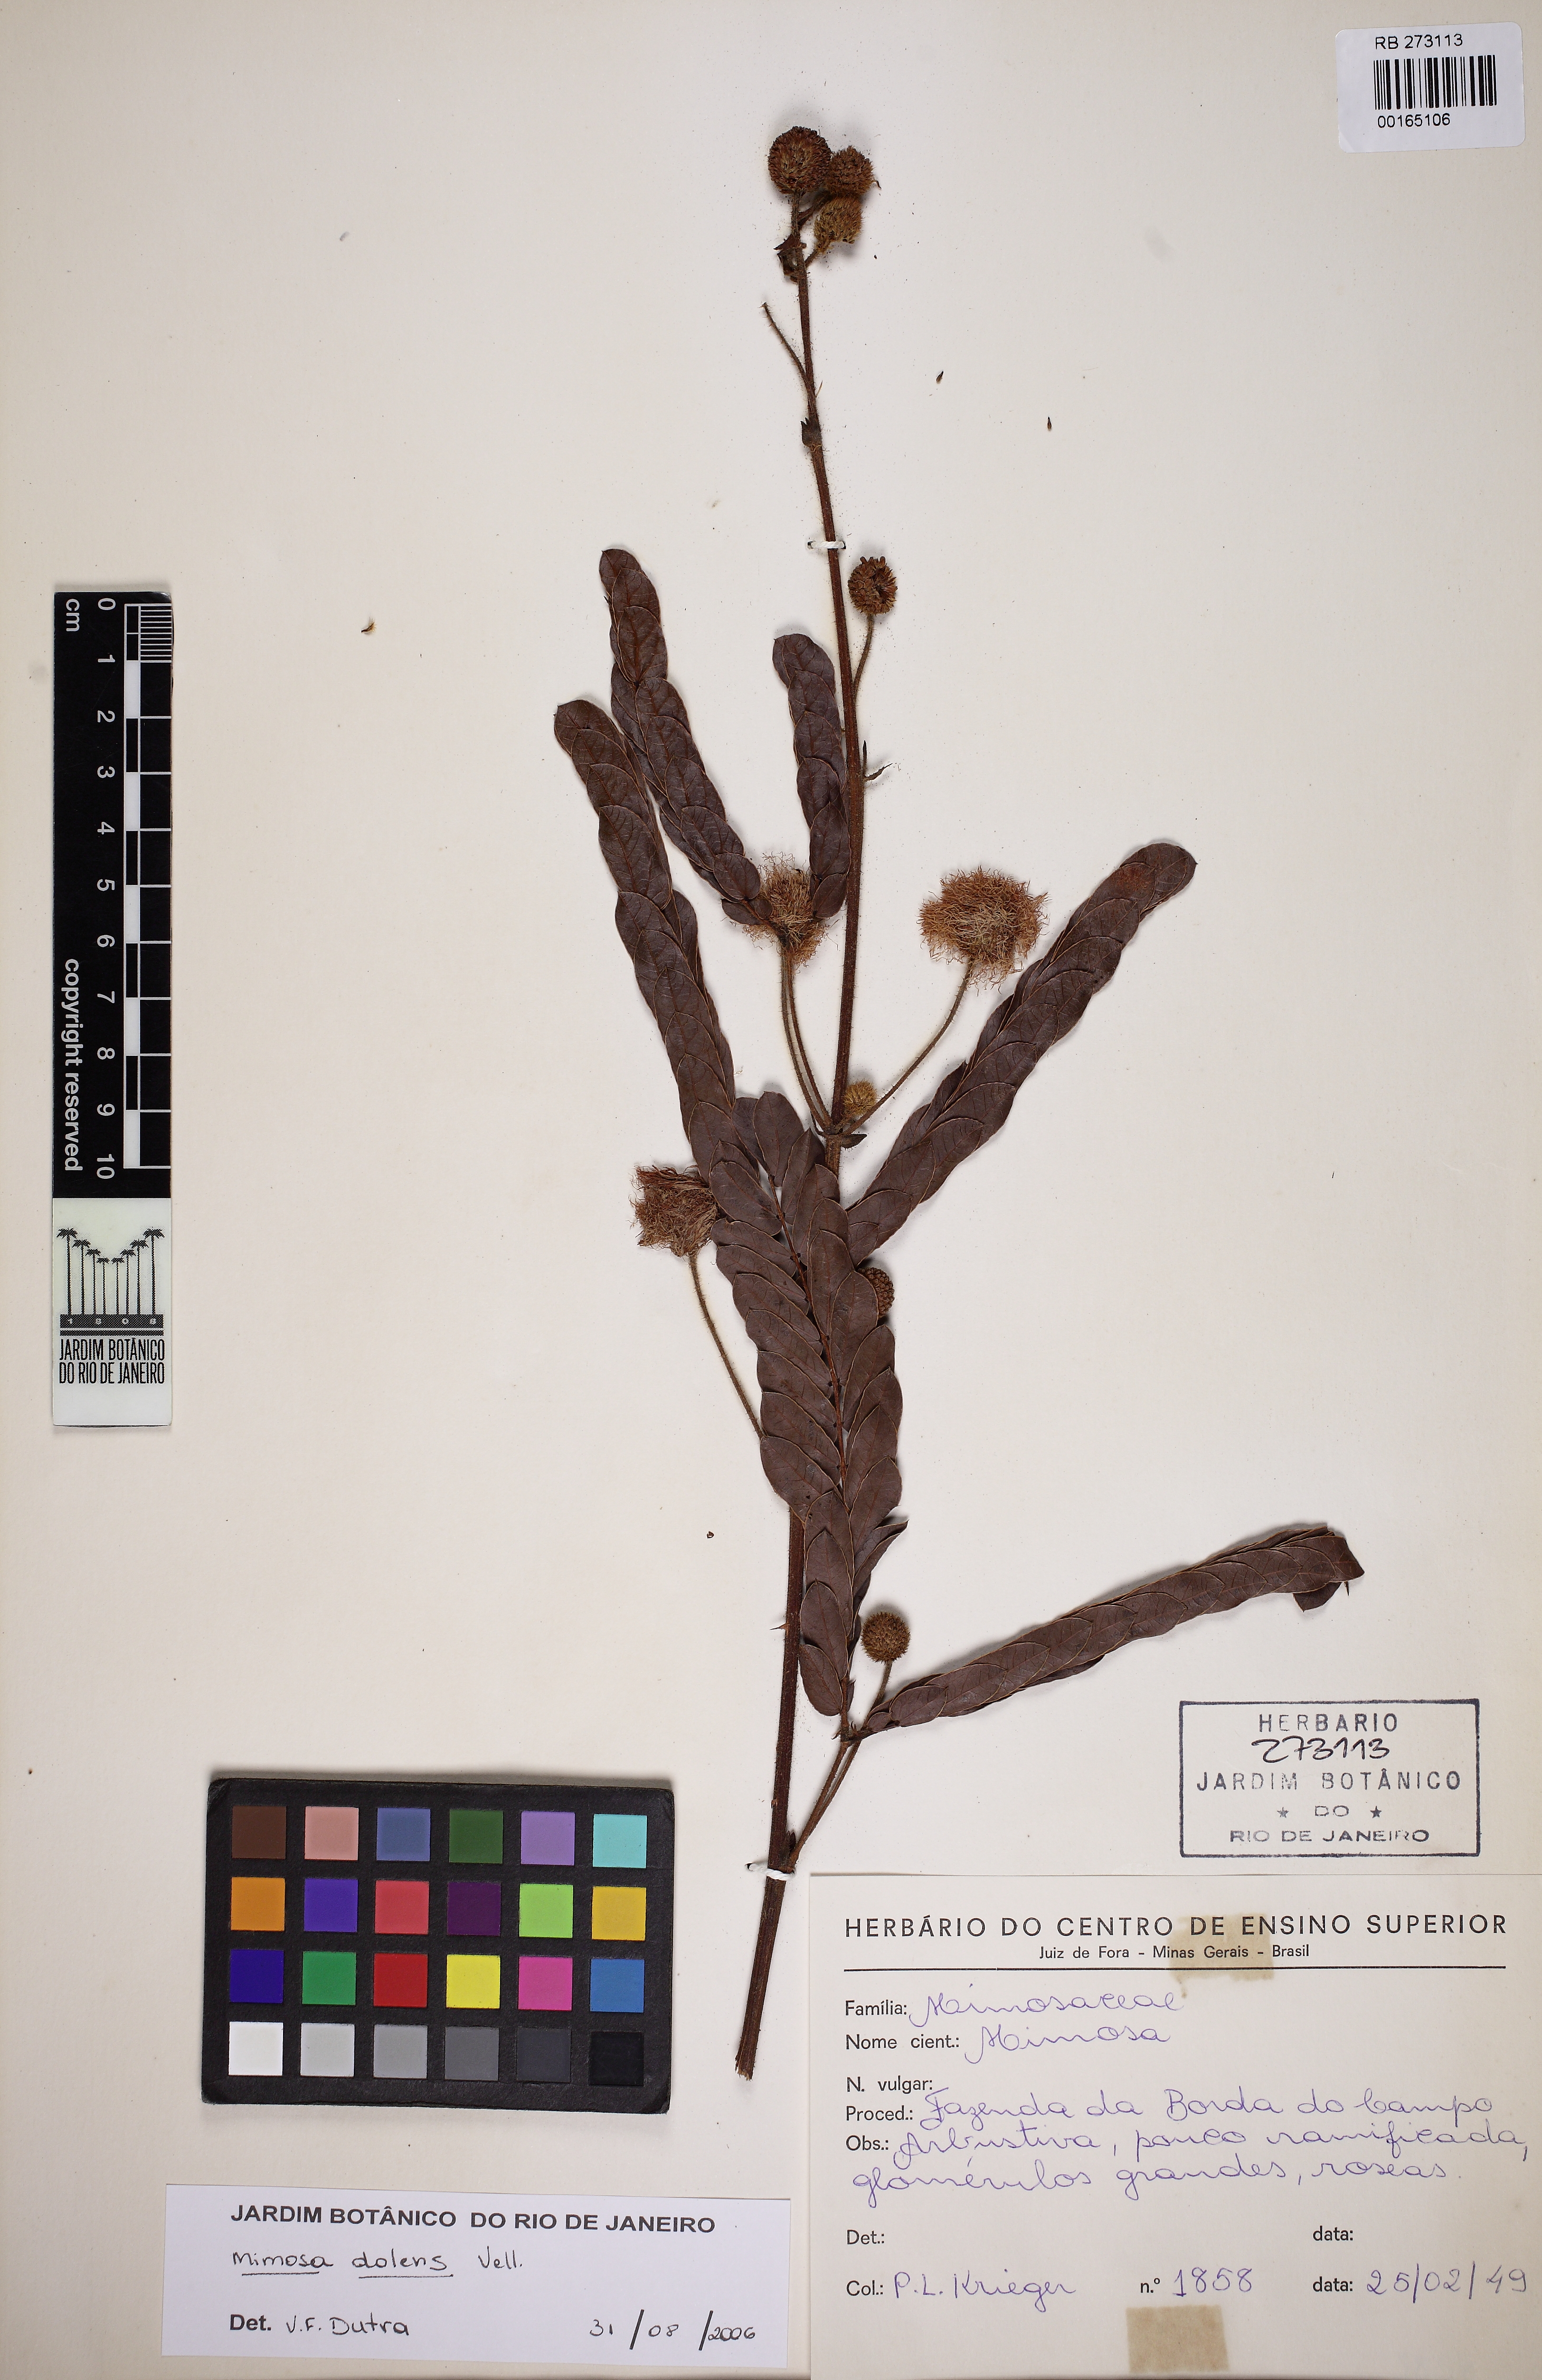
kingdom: Plantae
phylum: Tracheophyta
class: Magnoliopsida
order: Fabales
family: Fabaceae
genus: Mimosa
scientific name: Mimosa dolens
